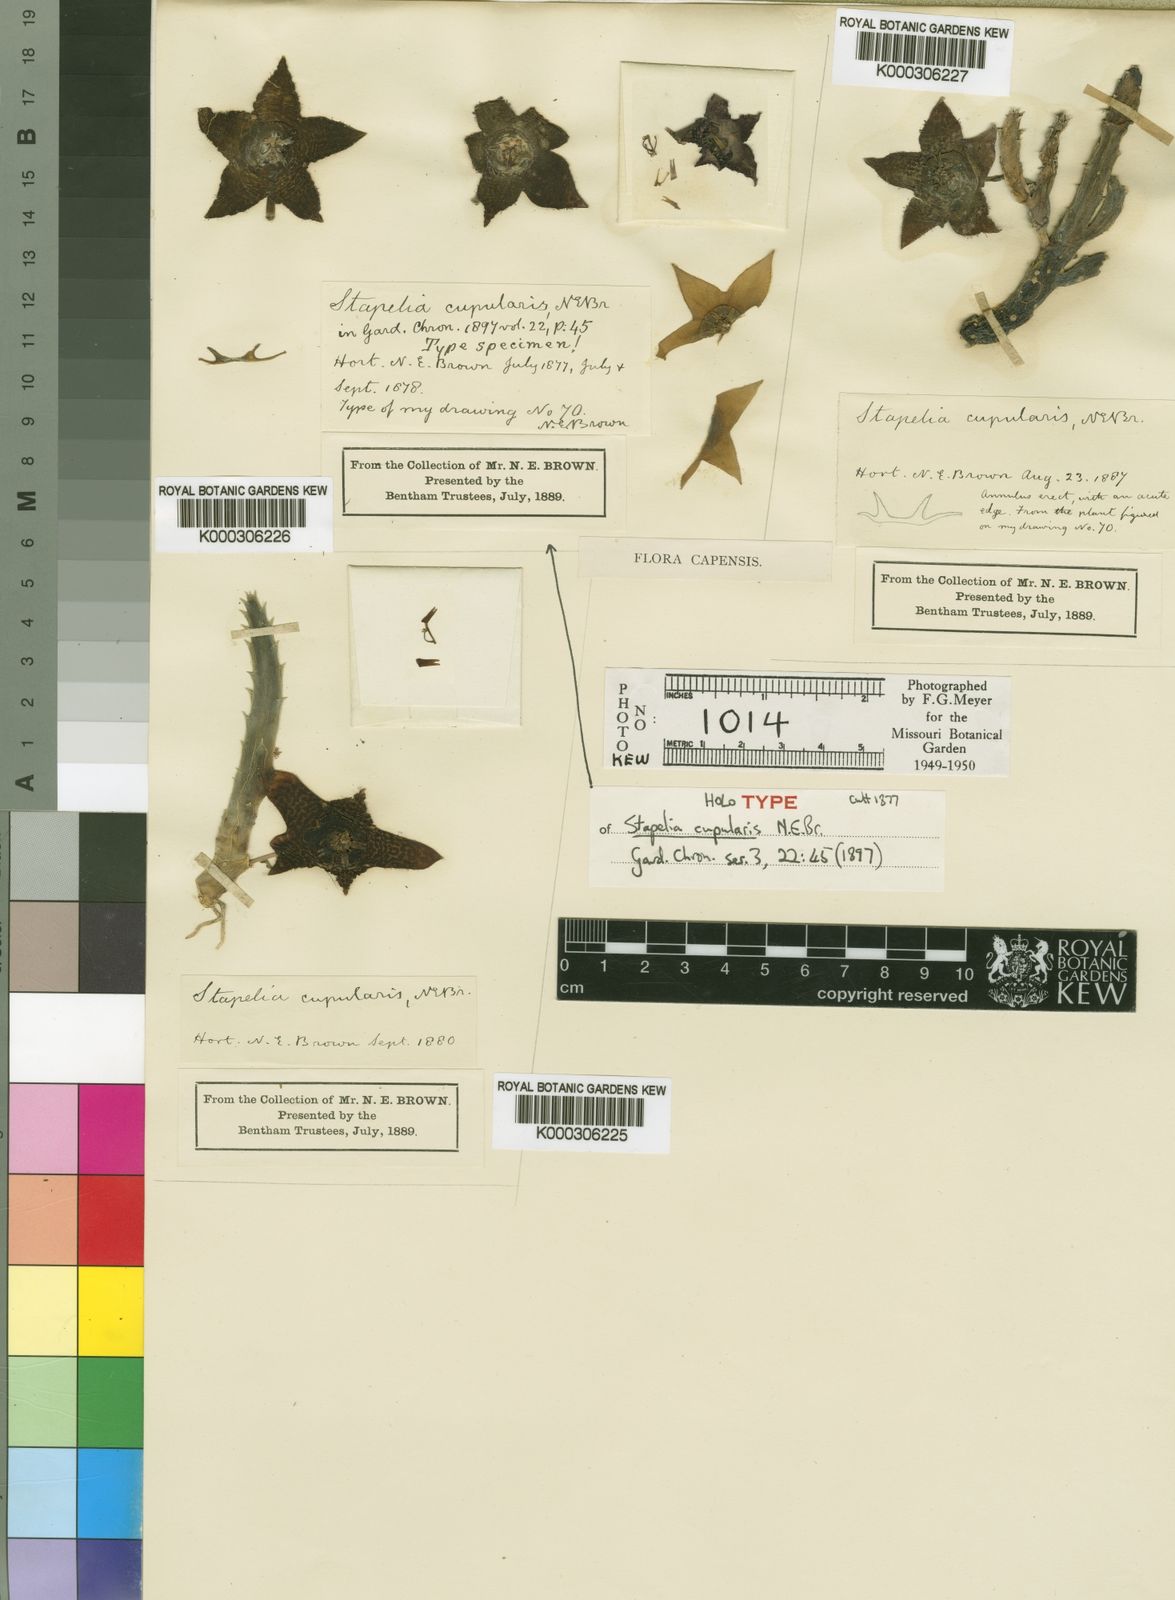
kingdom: Plantae
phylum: Tracheophyta
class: Magnoliopsida
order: Gentianales
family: Apocynaceae
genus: Ceropegia
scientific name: Ceropegia rufa
